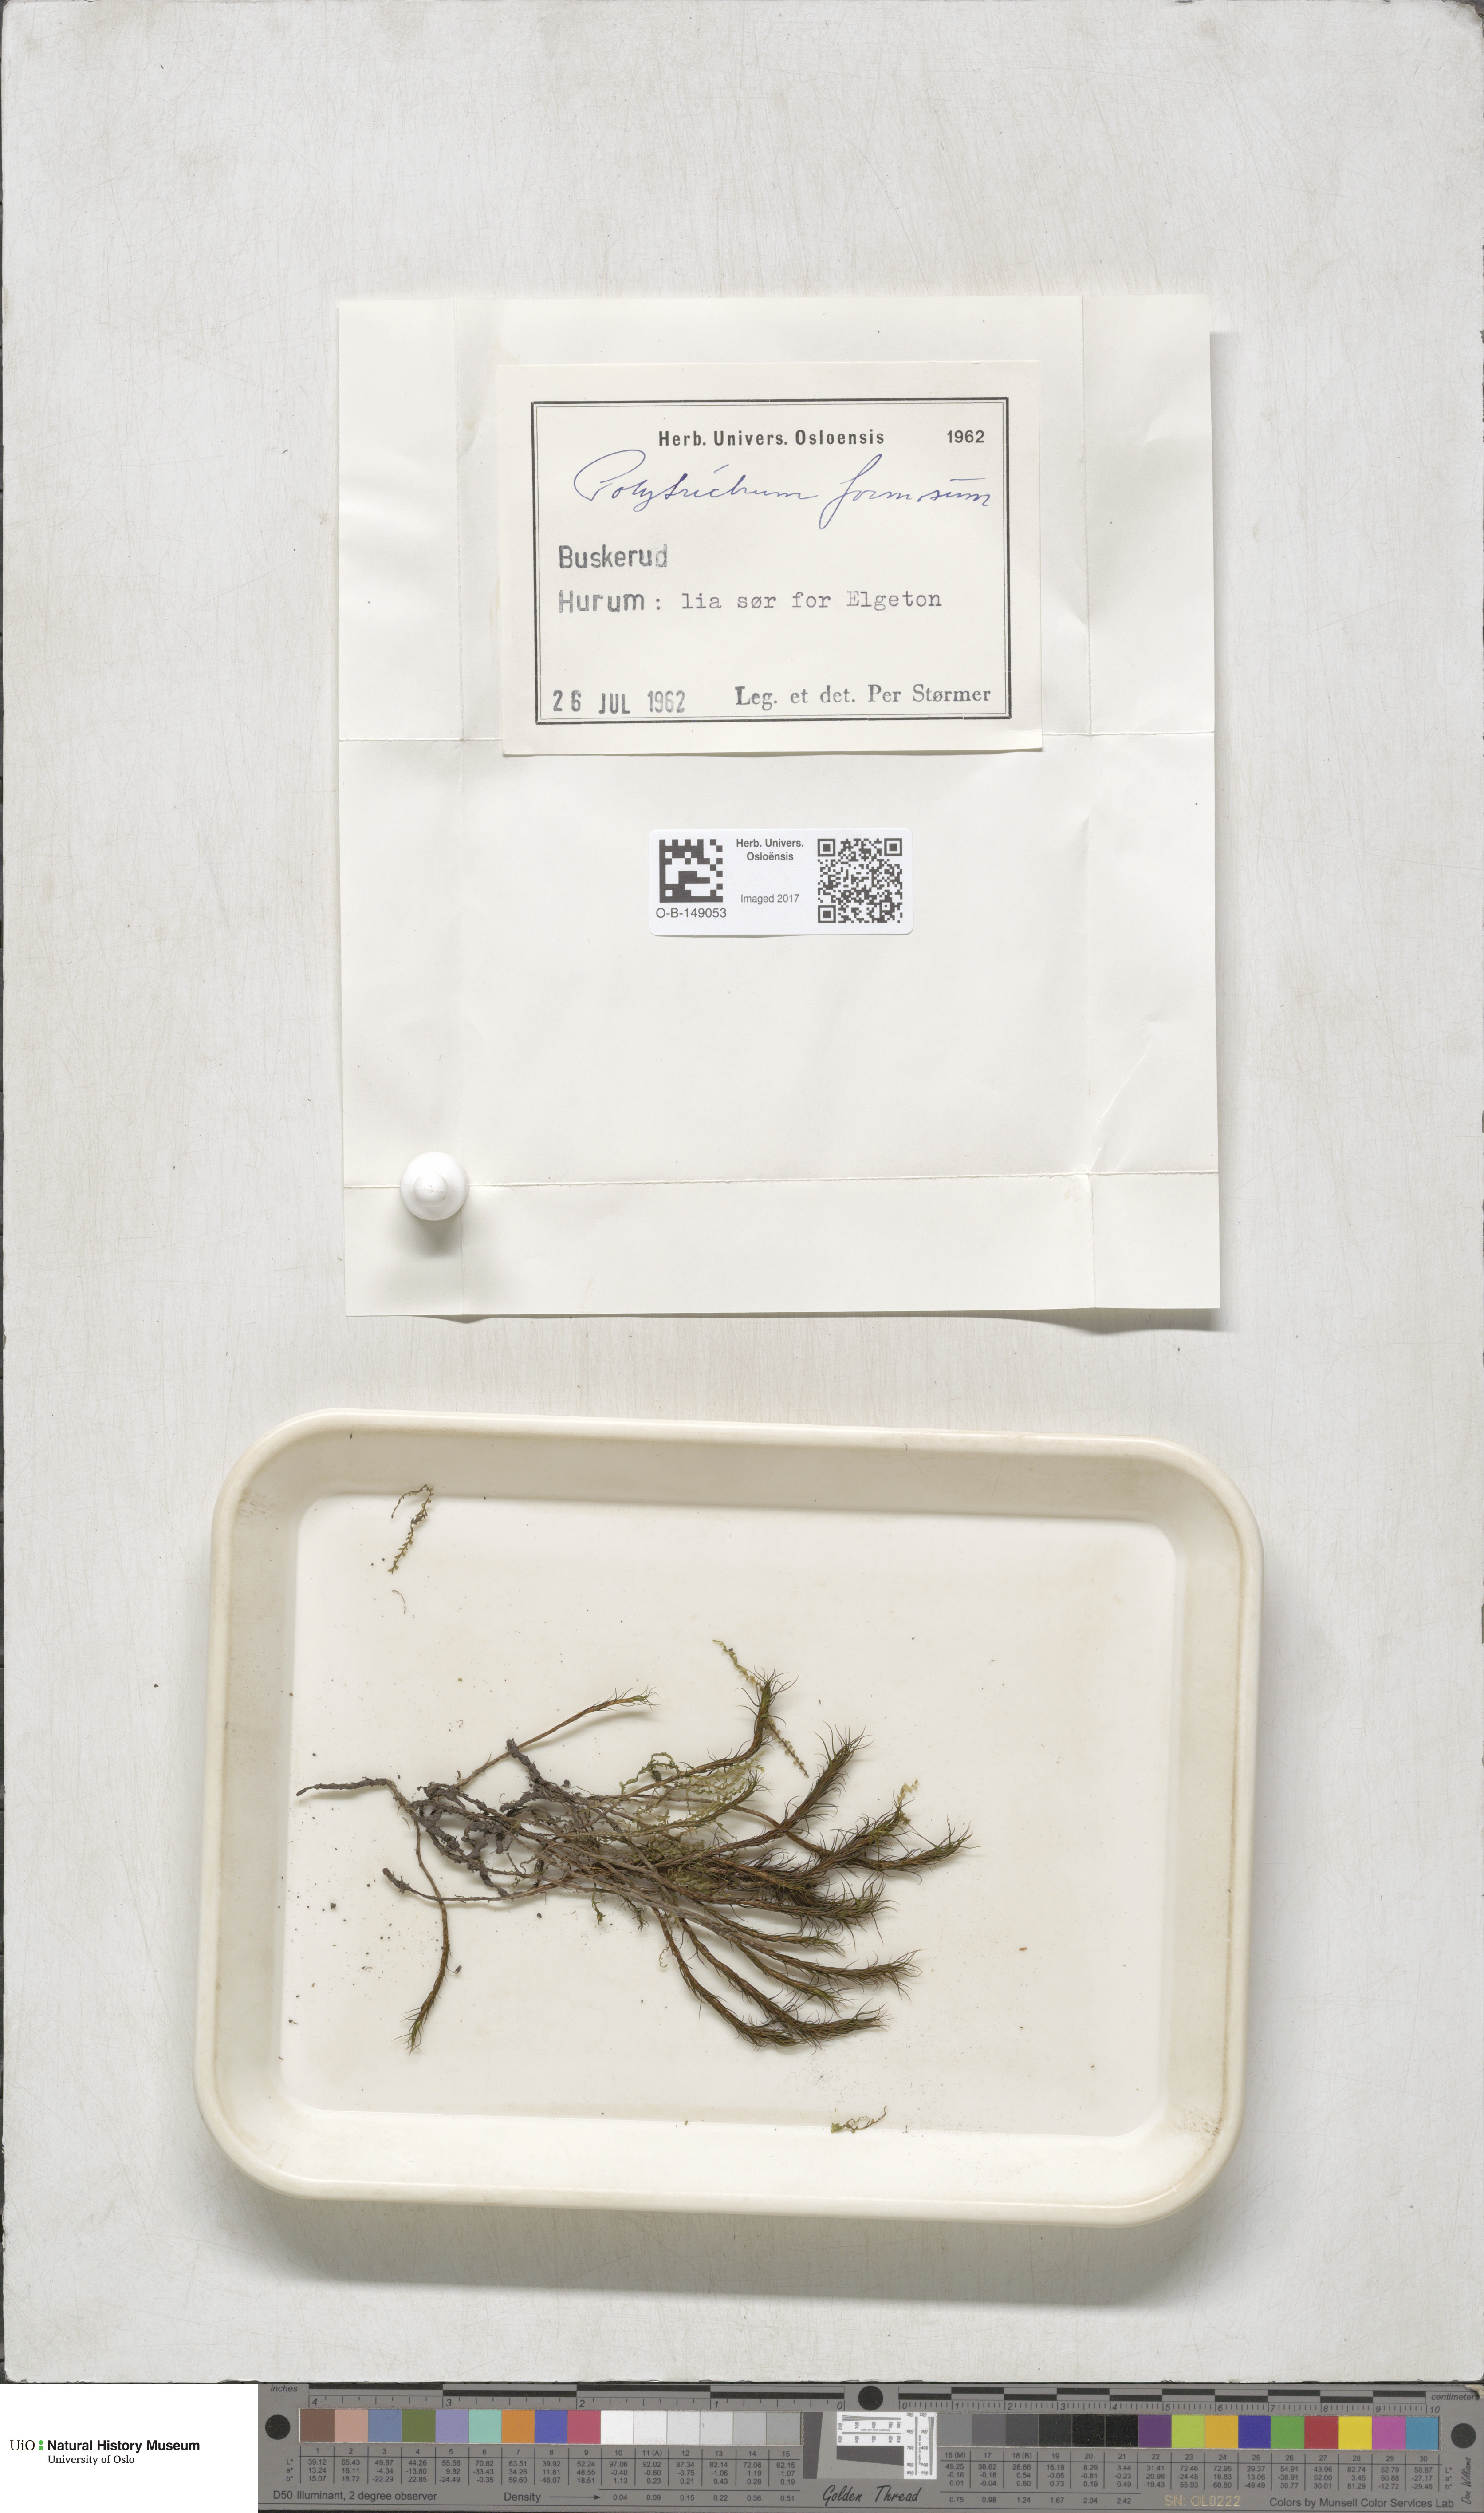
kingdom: Plantae
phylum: Bryophyta
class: Polytrichopsida
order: Polytrichales
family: Polytrichaceae
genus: Polytrichum
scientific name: Polytrichum formosum
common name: Bank haircap moss
